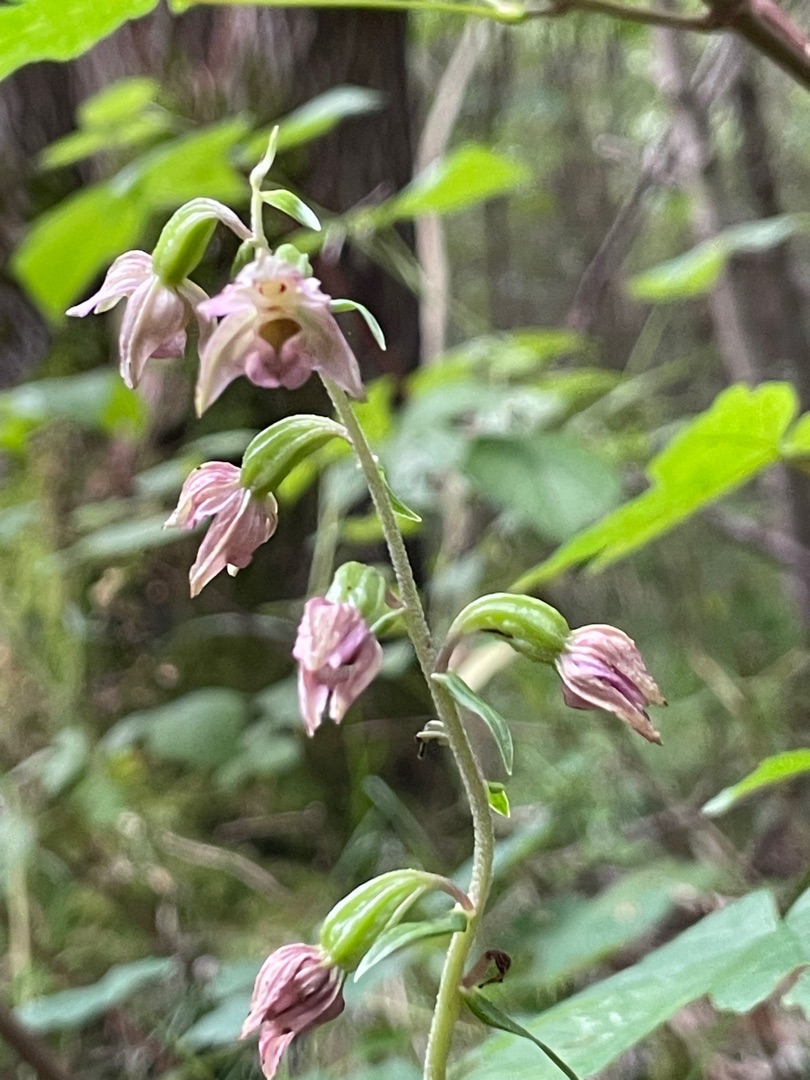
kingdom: Plantae
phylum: Tracheophyta
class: Liliopsida
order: Asparagales
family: Orchidaceae
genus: Epipactis
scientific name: Epipactis helleborine
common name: Skov-hullæbe
